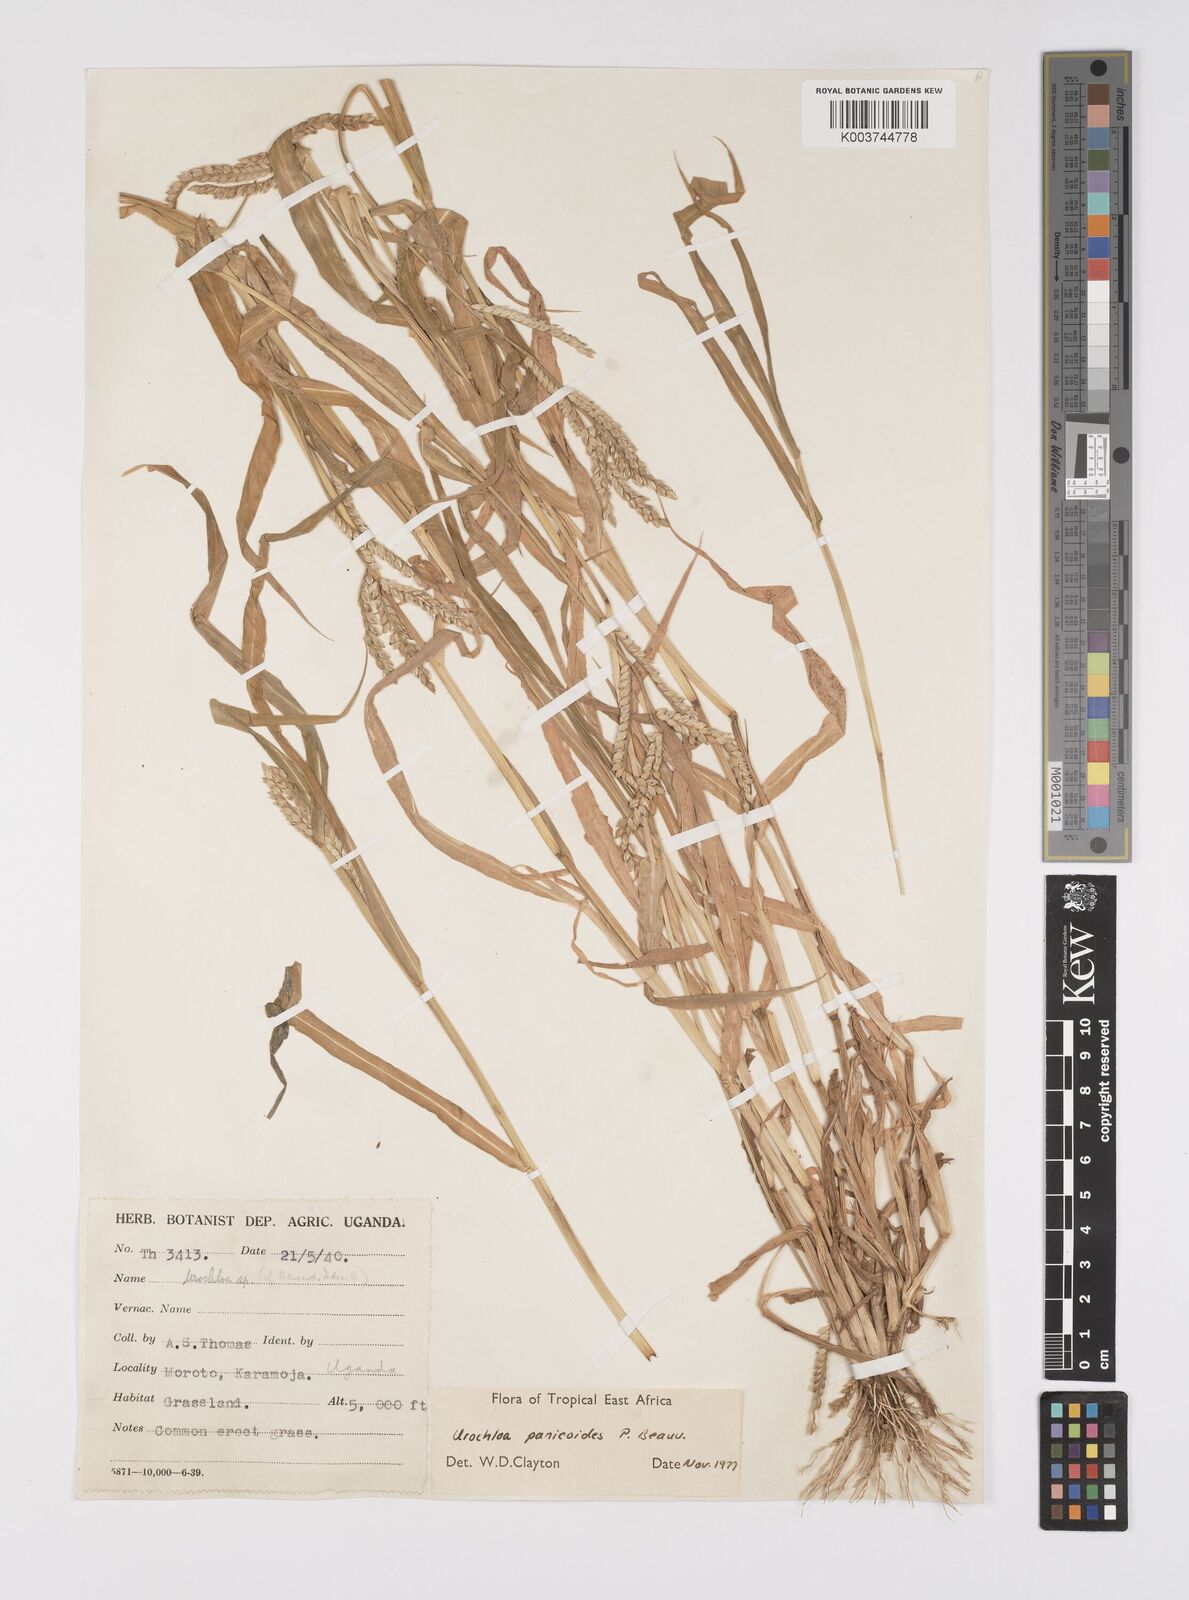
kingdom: Plantae
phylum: Tracheophyta
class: Liliopsida
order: Poales
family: Poaceae
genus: Urochloa
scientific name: Urochloa panicoides
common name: Sharp-flowered signal-grass
